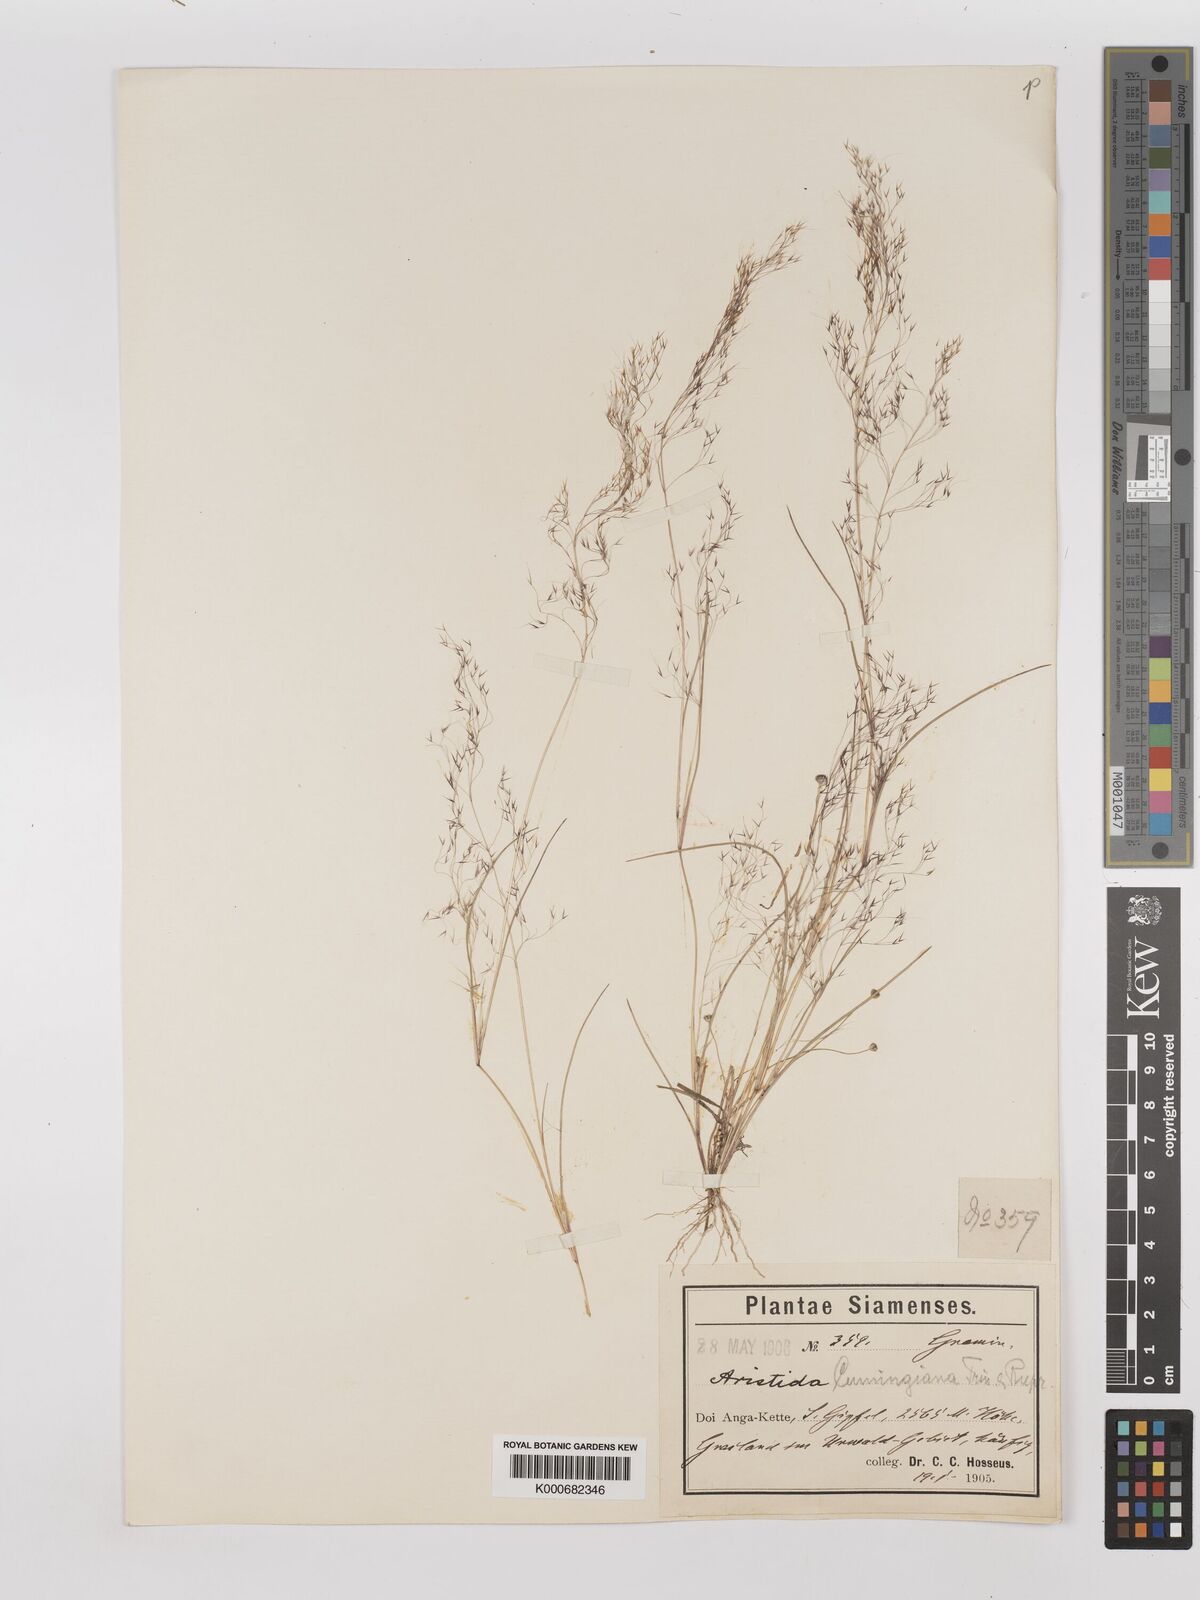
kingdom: Plantae
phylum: Tracheophyta
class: Liliopsida
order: Poales
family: Poaceae
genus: Aristida
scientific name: Aristida cumingiana
